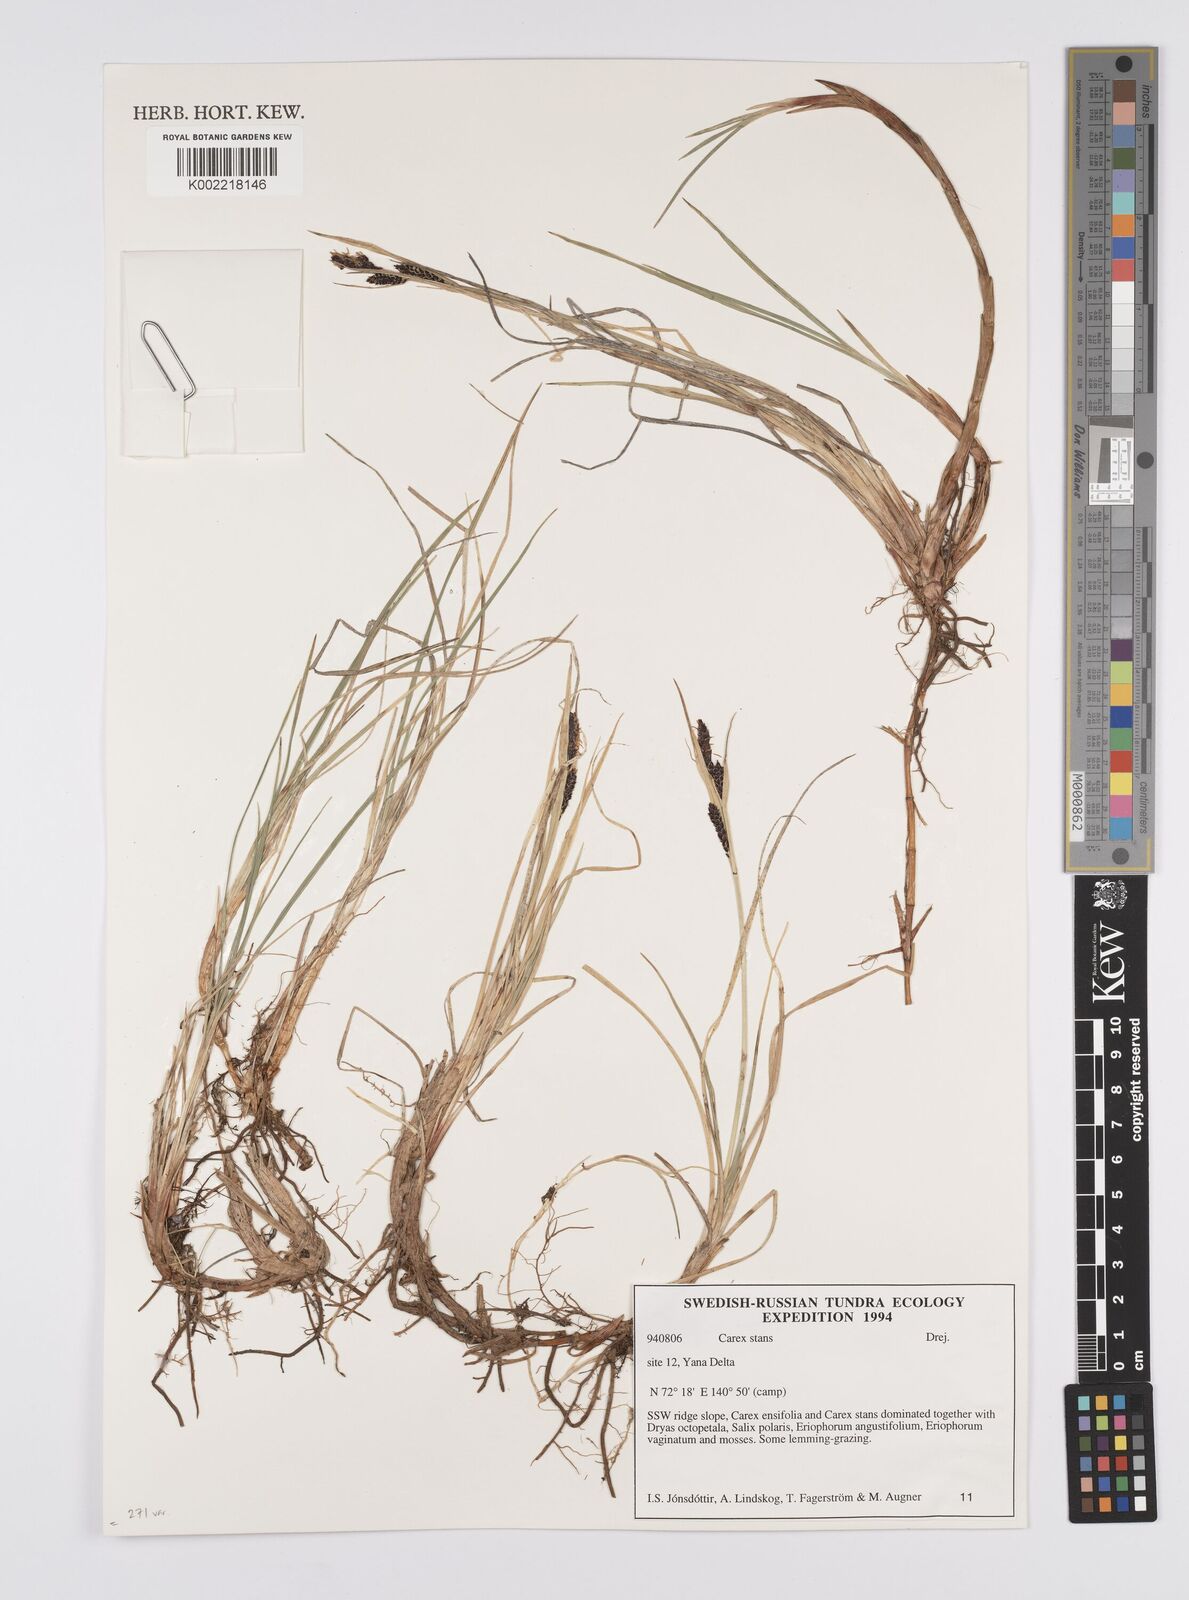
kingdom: Plantae
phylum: Tracheophyta
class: Liliopsida
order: Poales
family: Cyperaceae
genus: Carex
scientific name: Carex aquatilis
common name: Water sedge
